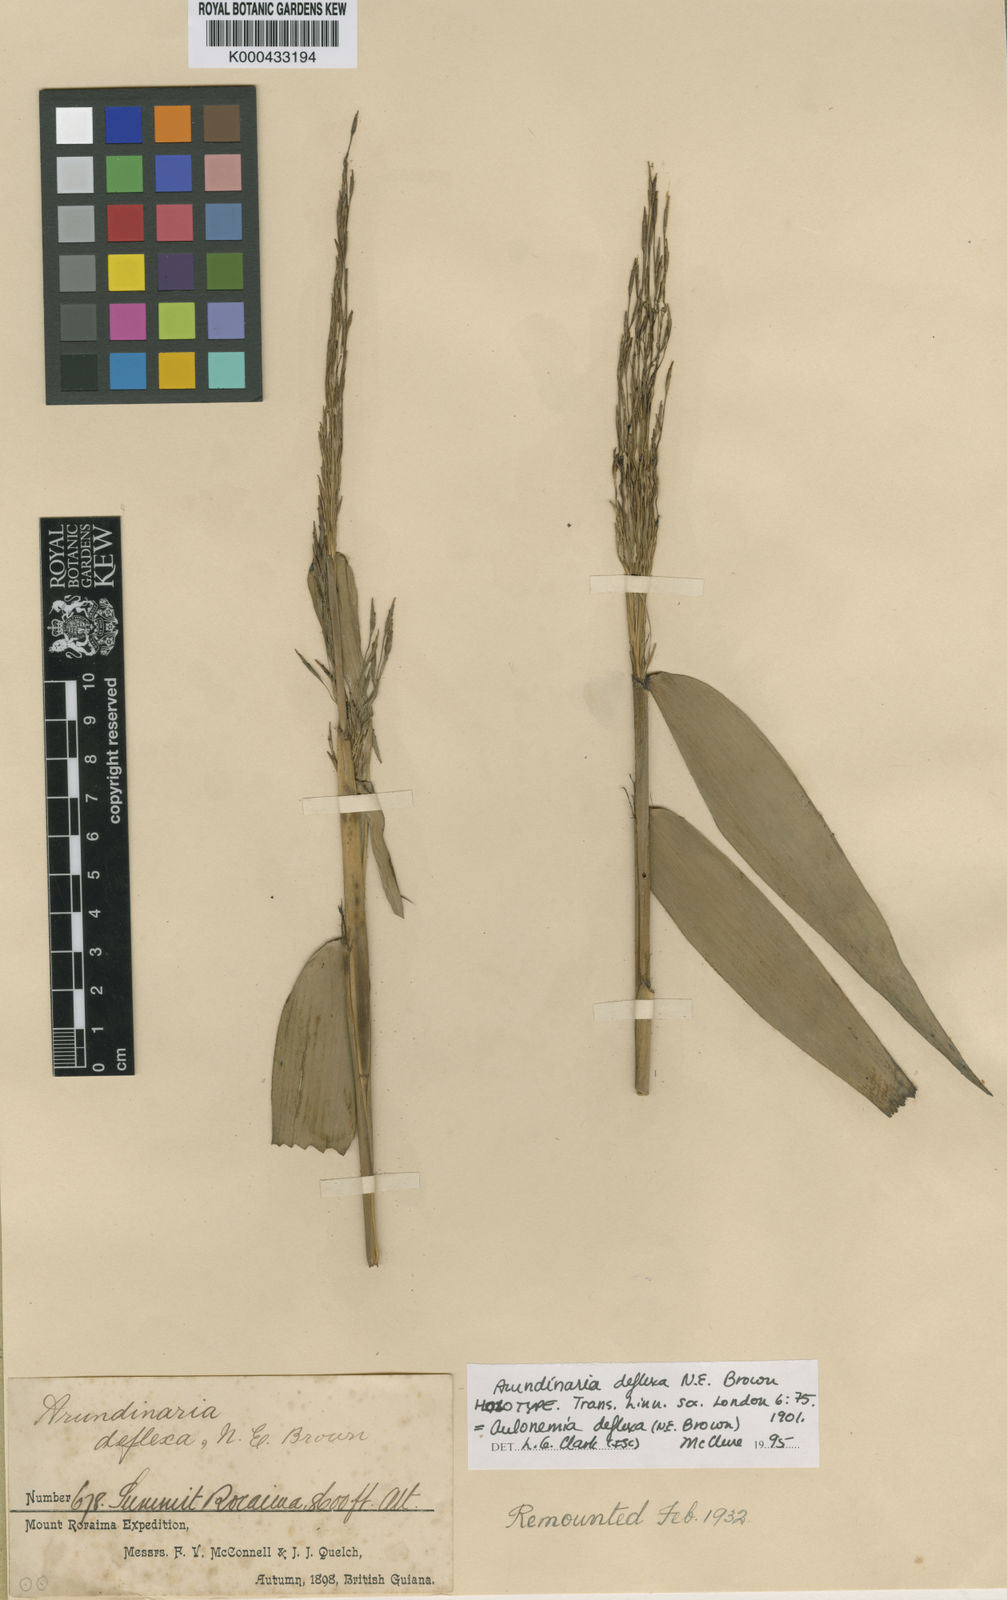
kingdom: Plantae
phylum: Tracheophyta
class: Liliopsida
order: Poales
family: Poaceae
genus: Aulonemia
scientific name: Aulonemia deflexa
